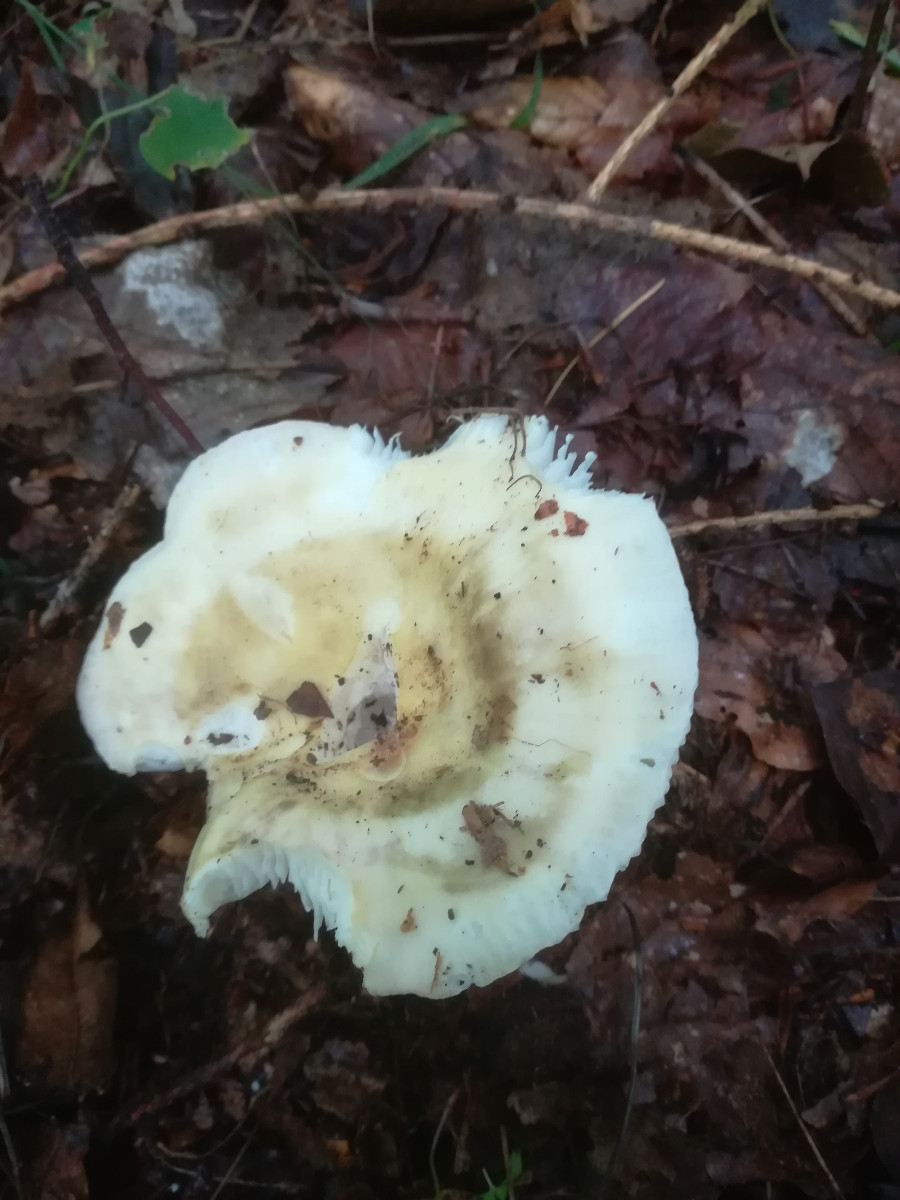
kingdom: Fungi
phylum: Basidiomycota
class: Agaricomycetes
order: Russulales
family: Russulaceae
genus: Russula
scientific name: Russula violeipes
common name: ferskengul skørhat
